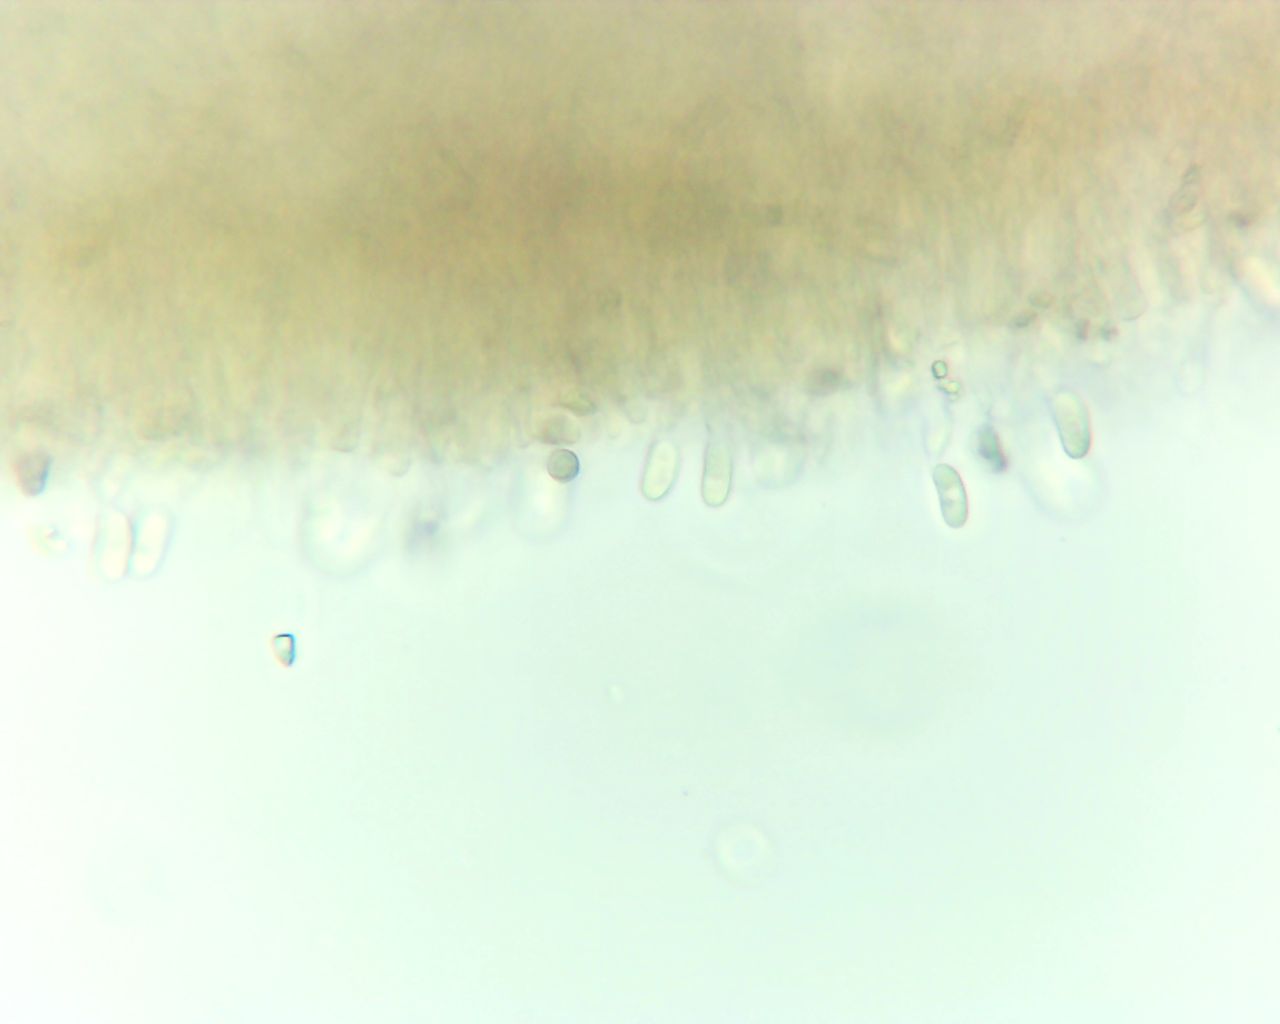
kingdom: Fungi
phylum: Basidiomycota
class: Dacrymycetes
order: Dacrymycetales
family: Dacrymycetaceae
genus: Calocera
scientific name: Calocera cornea
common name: liden guldgaffel
